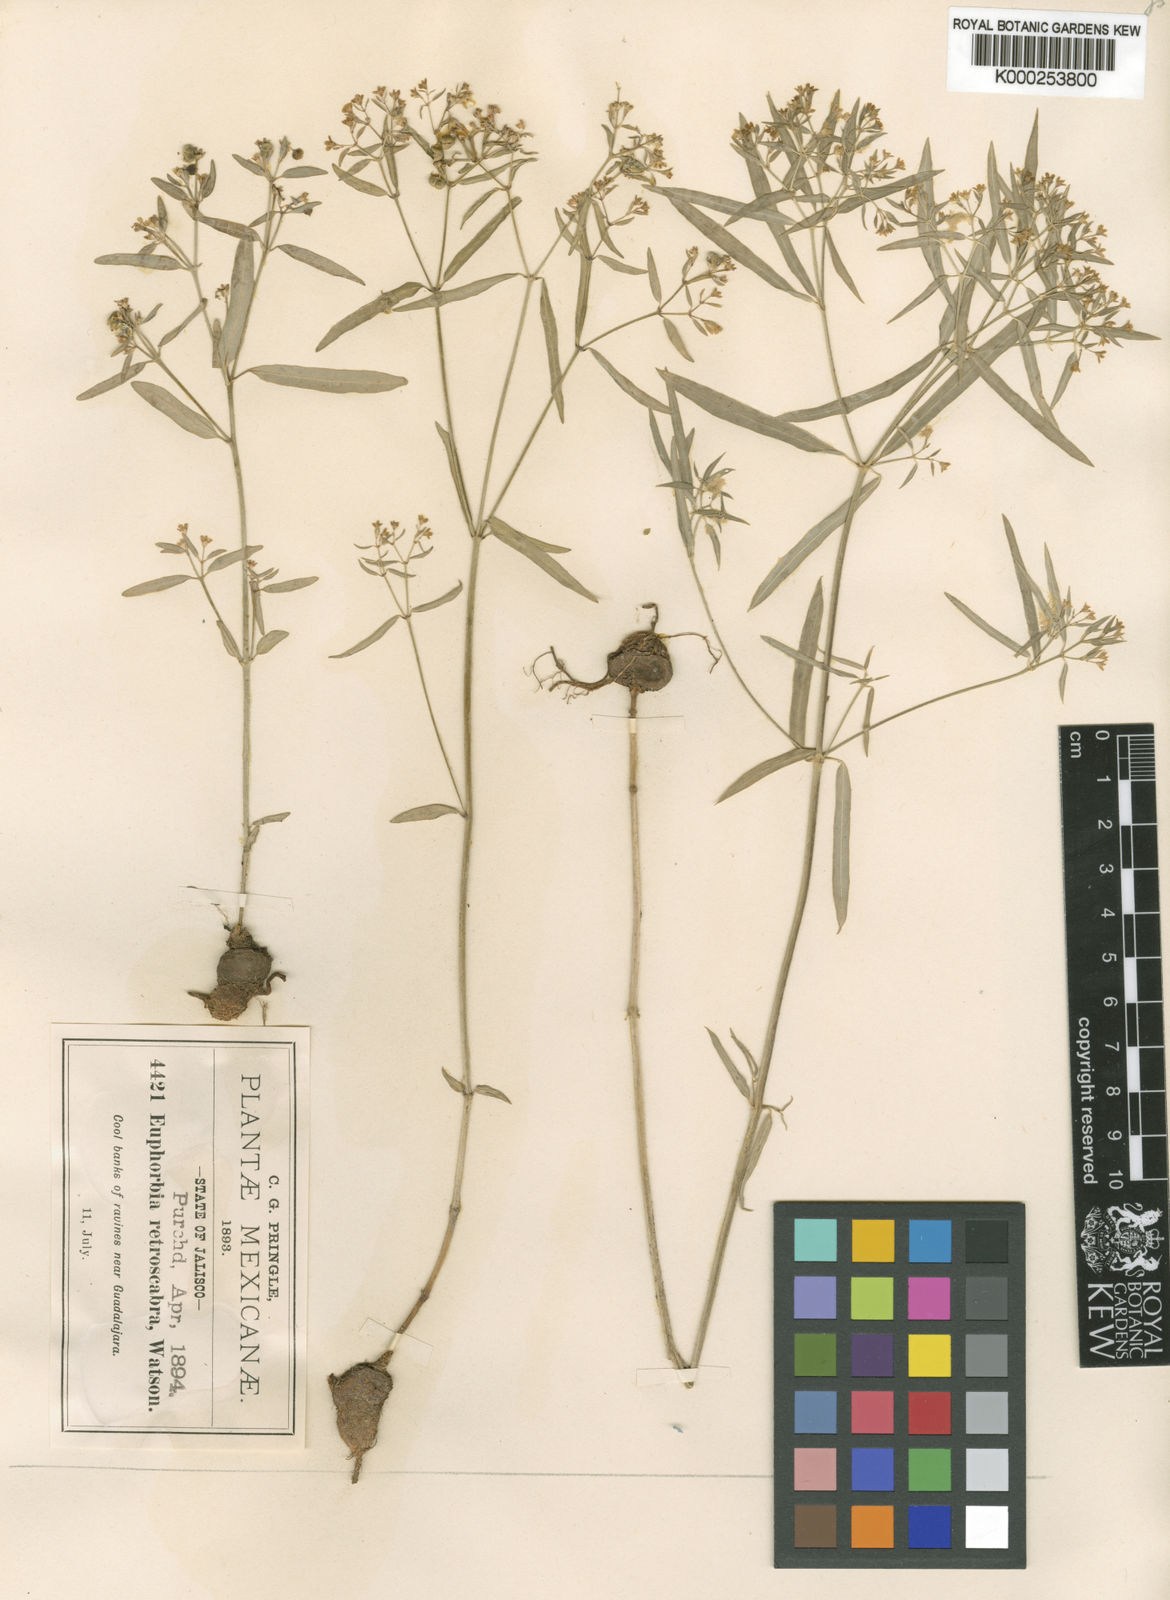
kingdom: Plantae
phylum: Tracheophyta
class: Magnoliopsida
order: Malpighiales
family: Euphorbiaceae
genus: Euphorbia
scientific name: Euphorbia macropus
